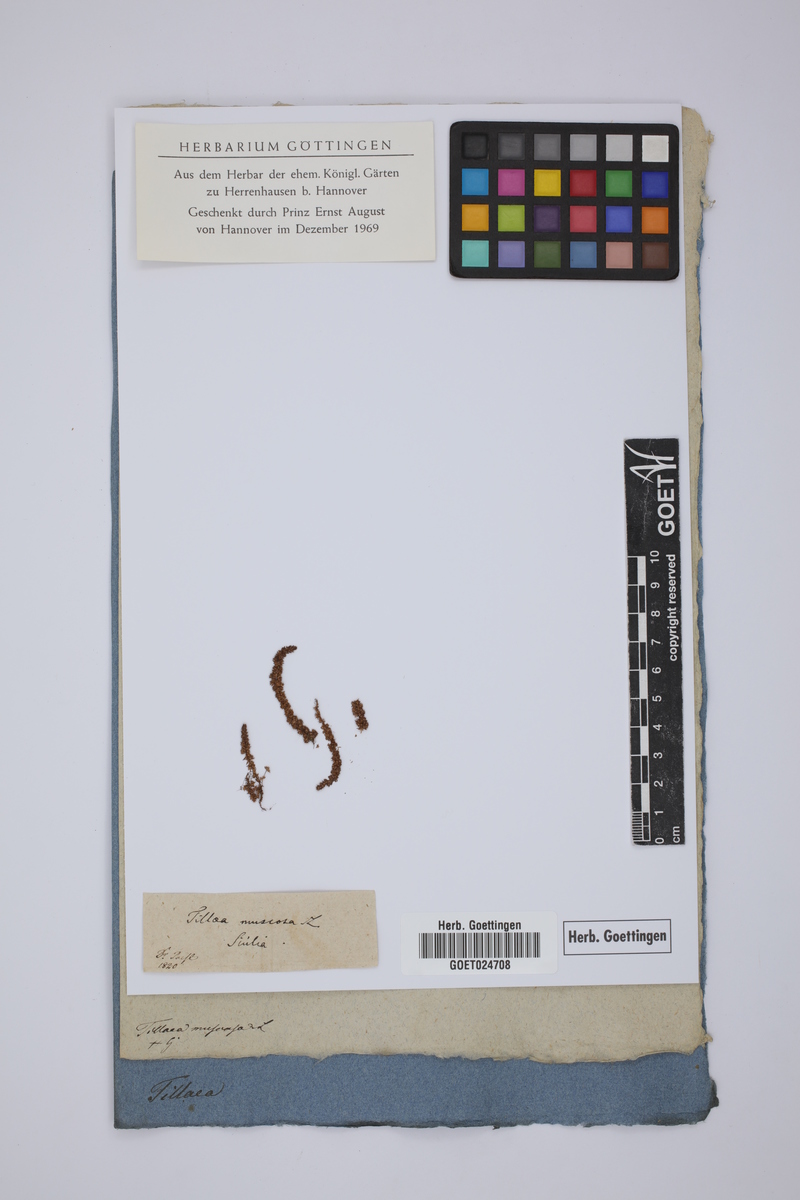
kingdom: Plantae
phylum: Tracheophyta
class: Magnoliopsida
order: Saxifragales
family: Crassulaceae
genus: Crassula
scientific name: Crassula tillaea
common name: Mossy stonecrop
